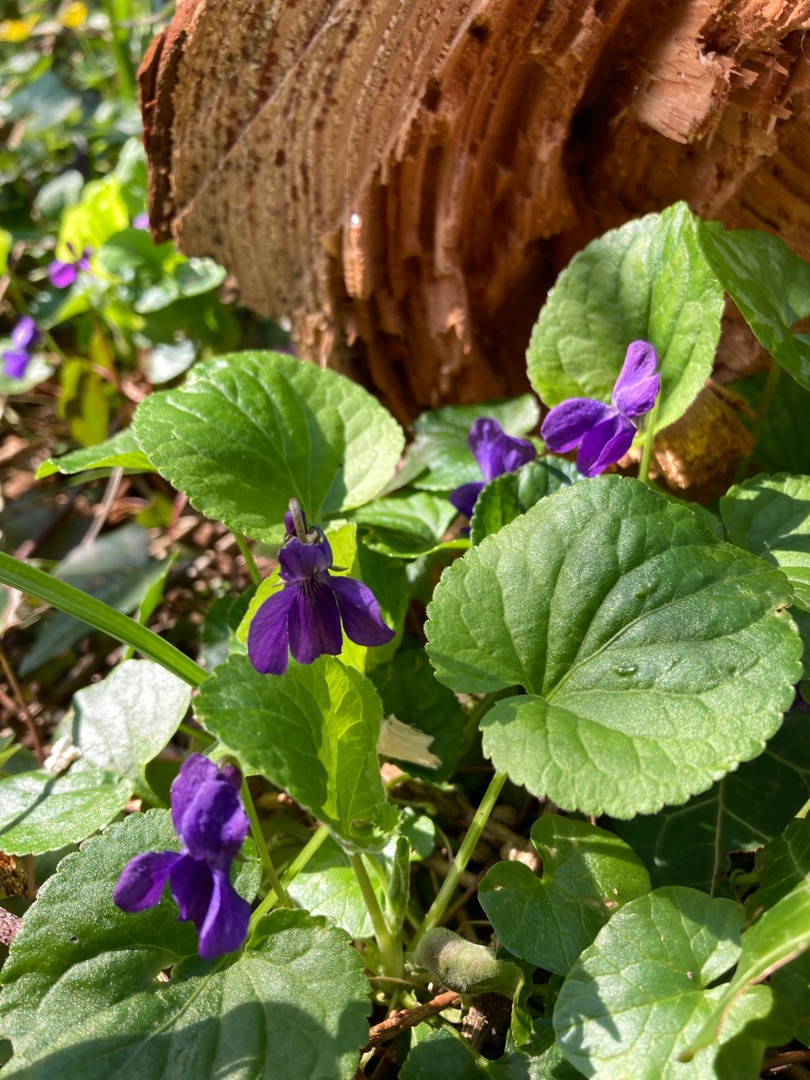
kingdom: Plantae
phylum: Tracheophyta
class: Magnoliopsida
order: Malpighiales
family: Violaceae
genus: Viola
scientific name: Viola odorata
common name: Marts-viol
